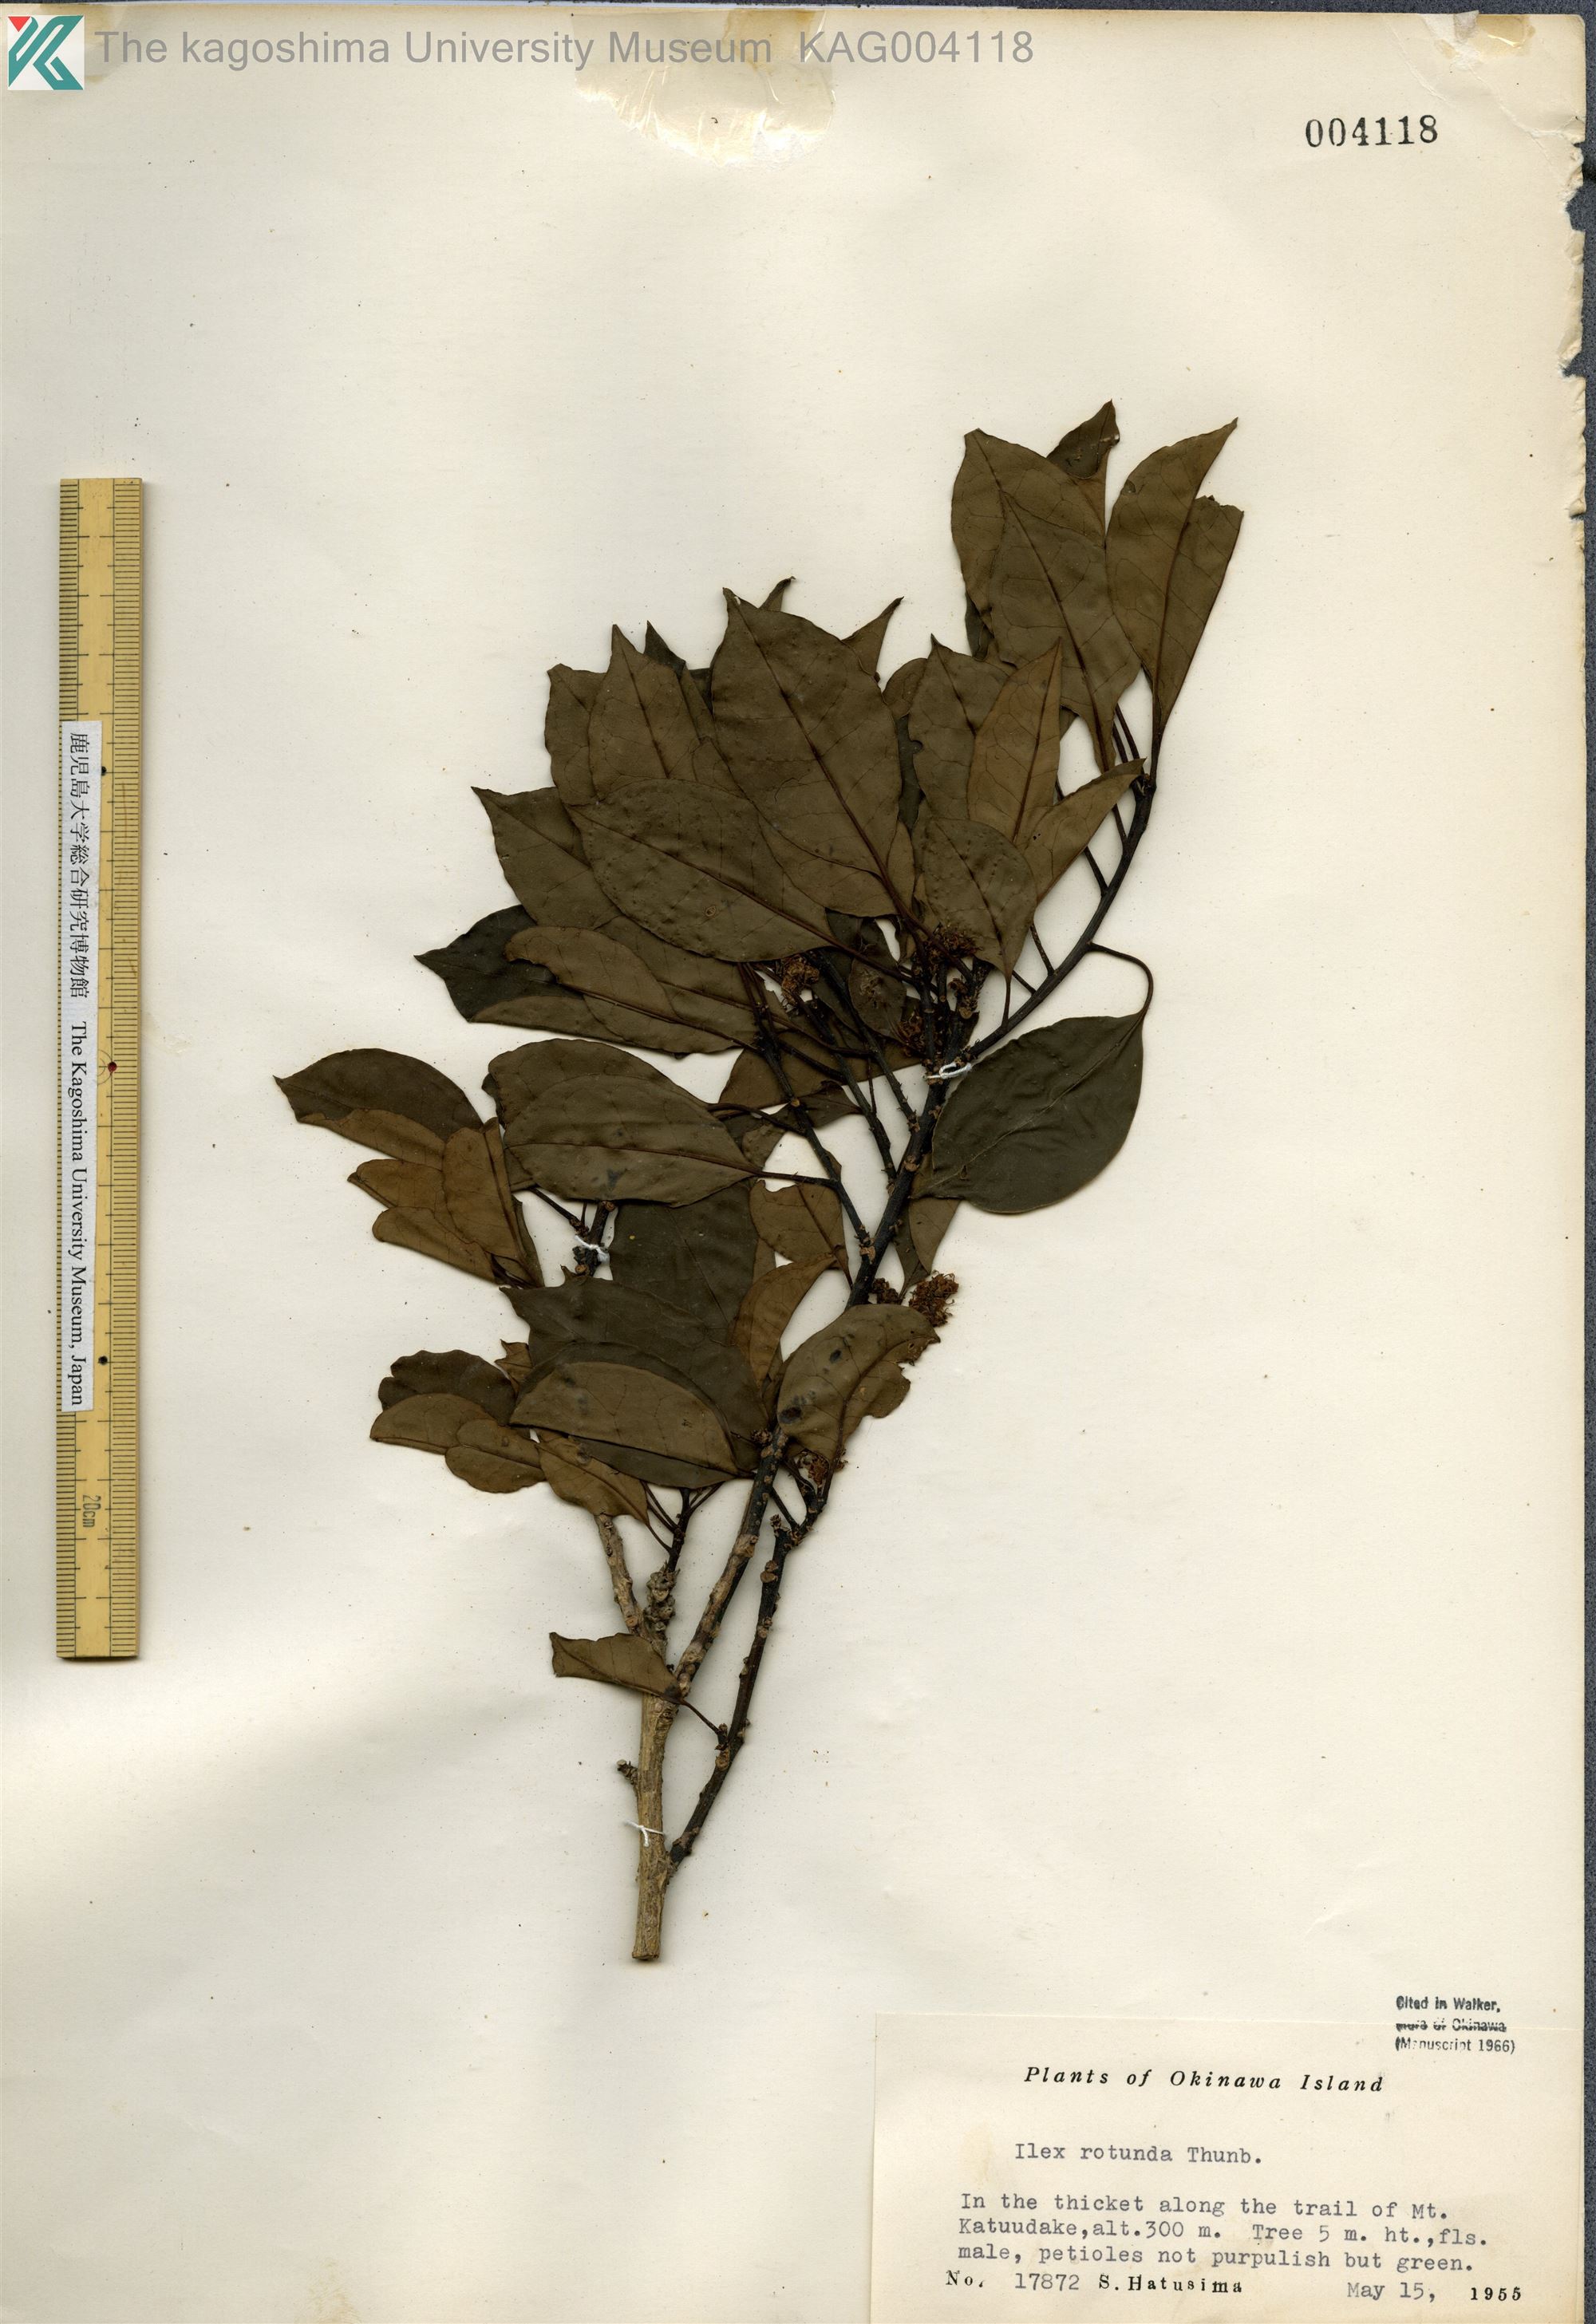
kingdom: Plantae
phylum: Tracheophyta
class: Magnoliopsida
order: Aquifoliales
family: Aquifoliaceae
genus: Ilex
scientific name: Ilex rotunda
